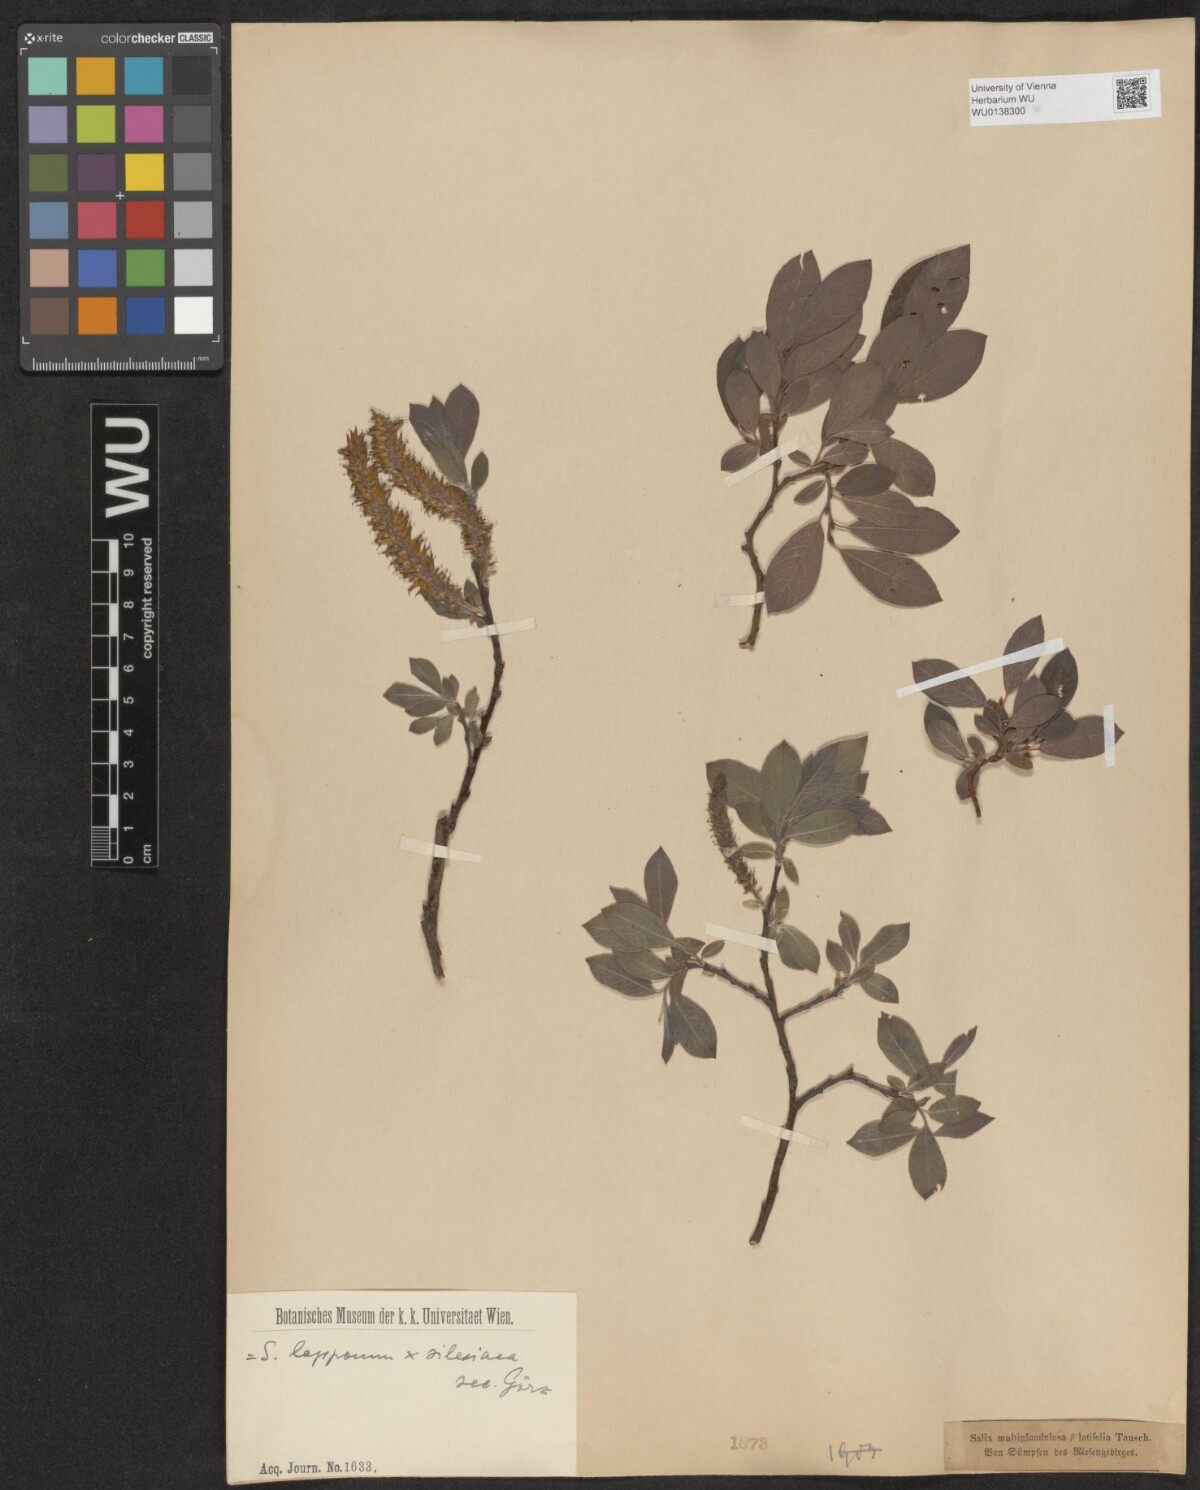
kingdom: Plantae
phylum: Tracheophyta
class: Magnoliopsida
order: Malpighiales
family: Salicaceae
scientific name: Salicaceae
